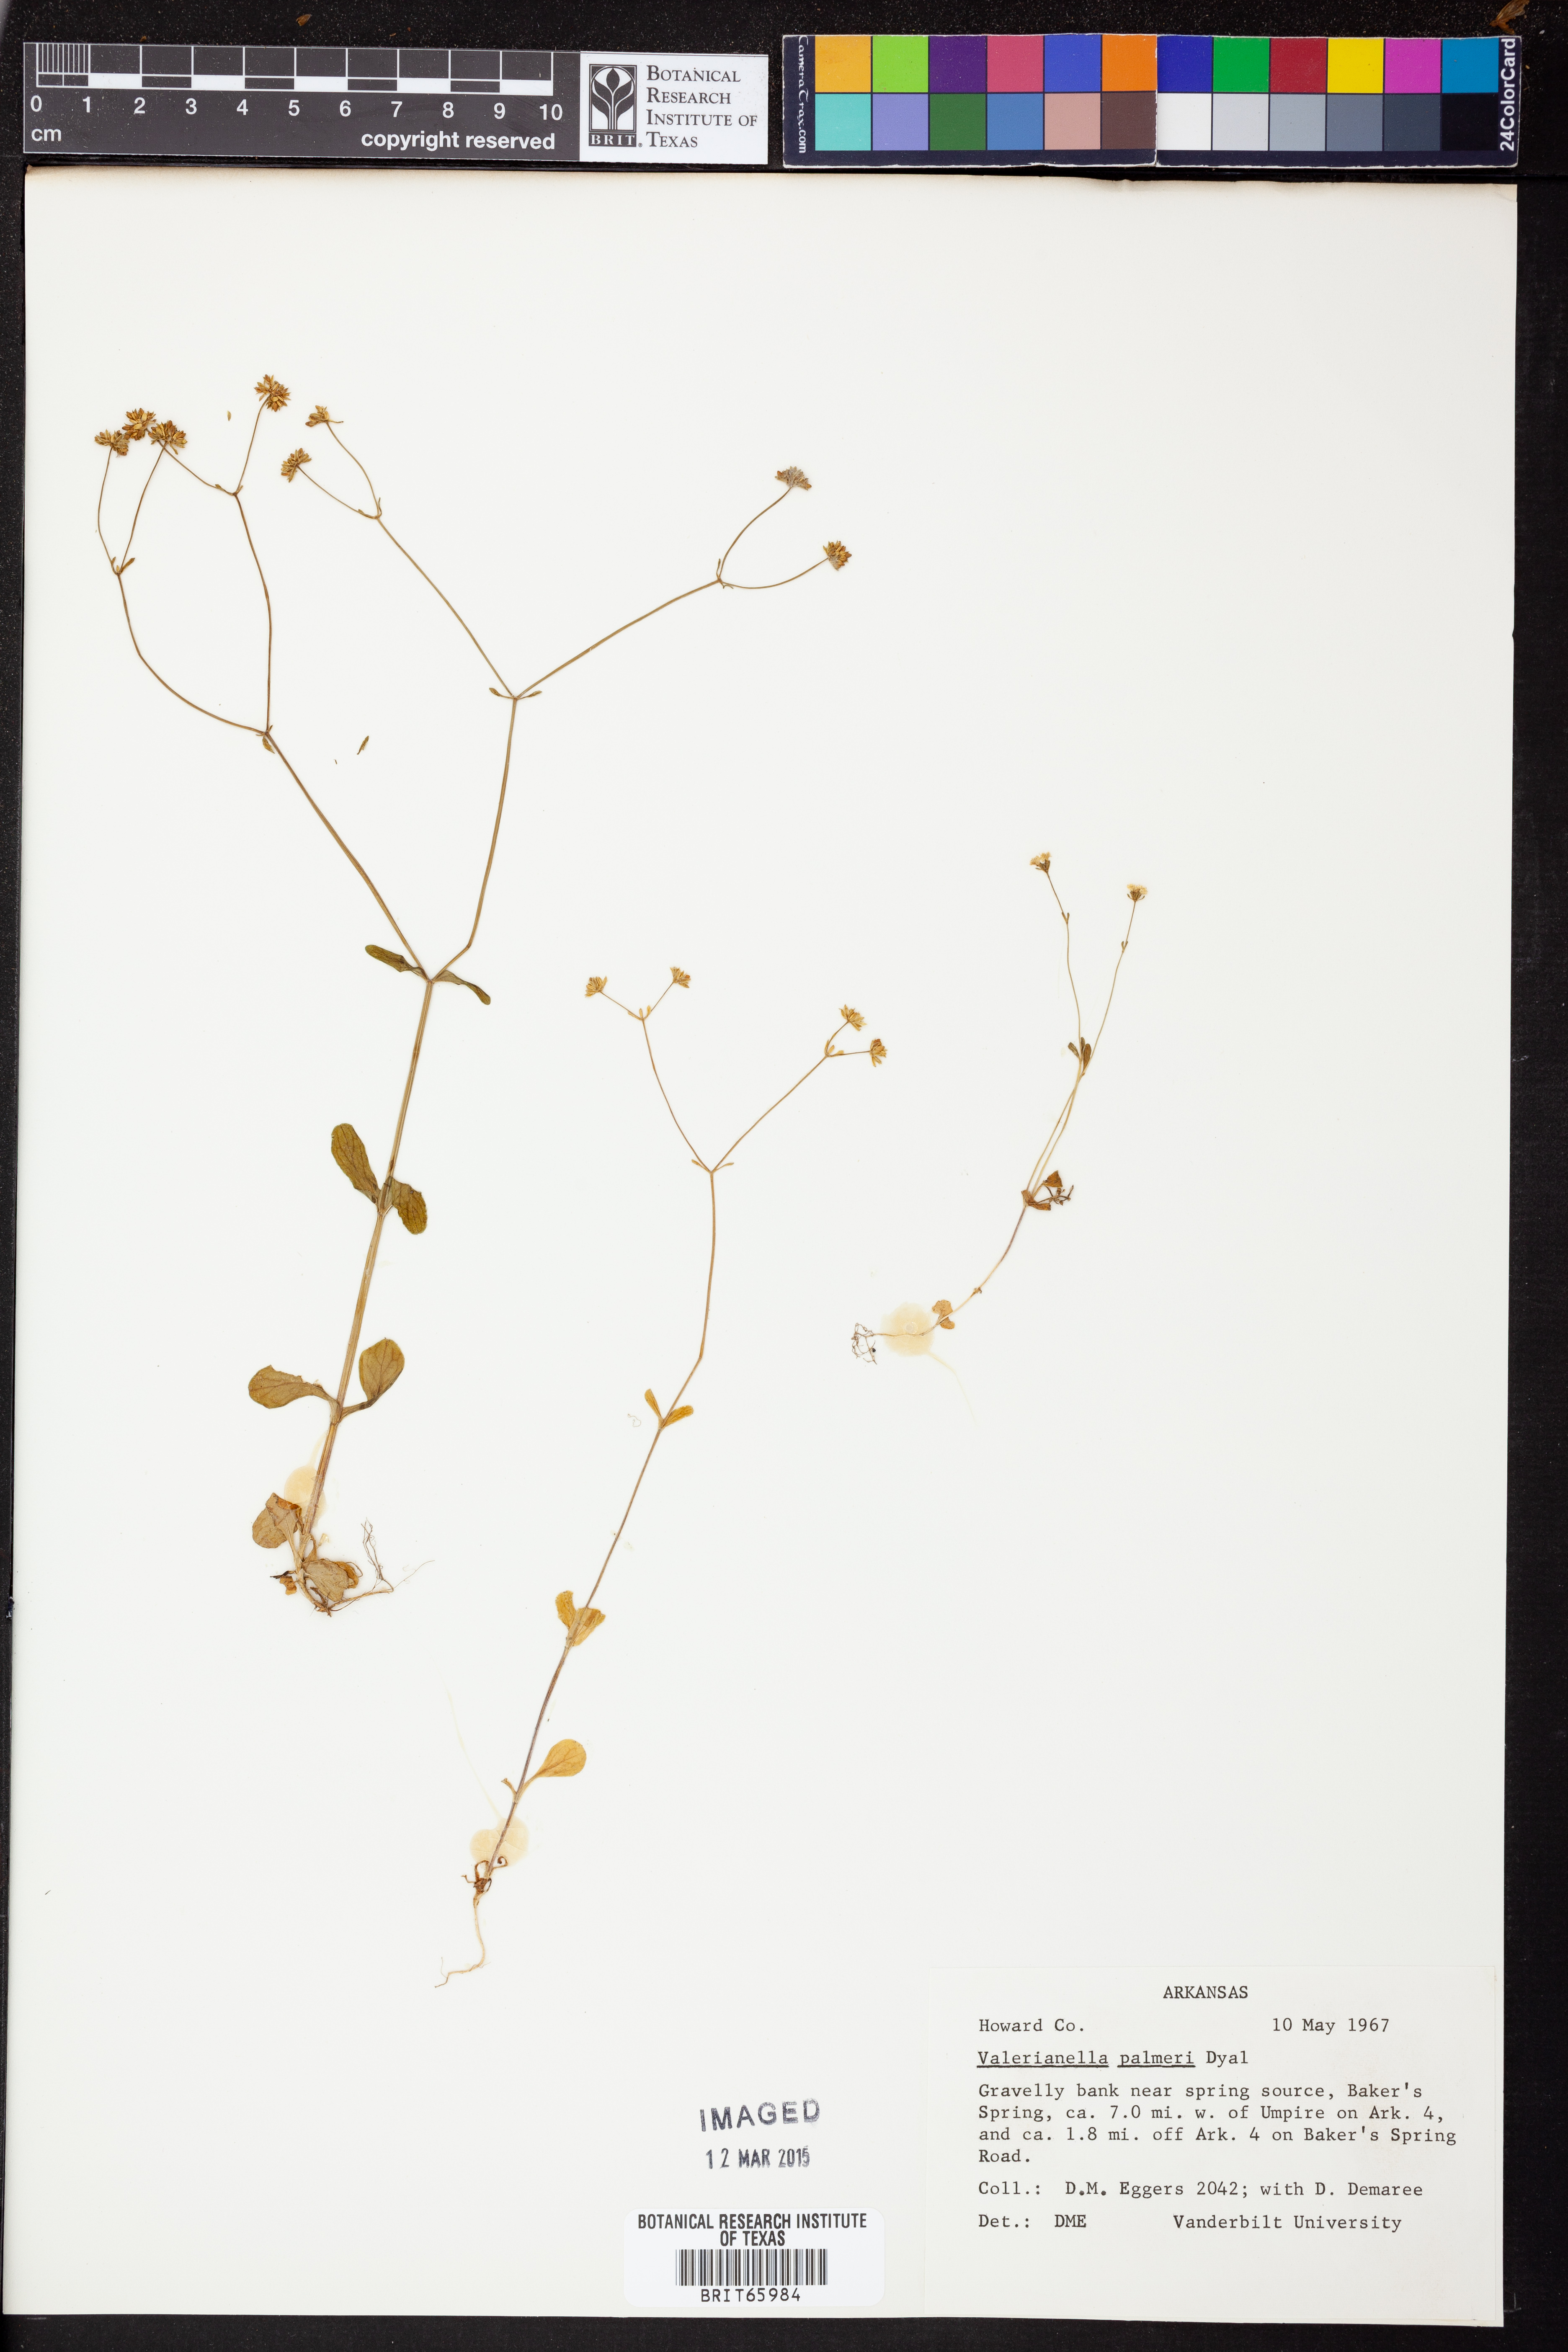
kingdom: Plantae
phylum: Tracheophyta
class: Magnoliopsida
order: Dipsacales
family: Caprifoliaceae
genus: Valerianella
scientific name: Valerianella palmeri
